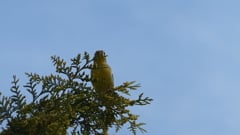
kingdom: Plantae
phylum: Tracheophyta
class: Liliopsida
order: Poales
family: Poaceae
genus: Chloris
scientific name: Chloris chloris
